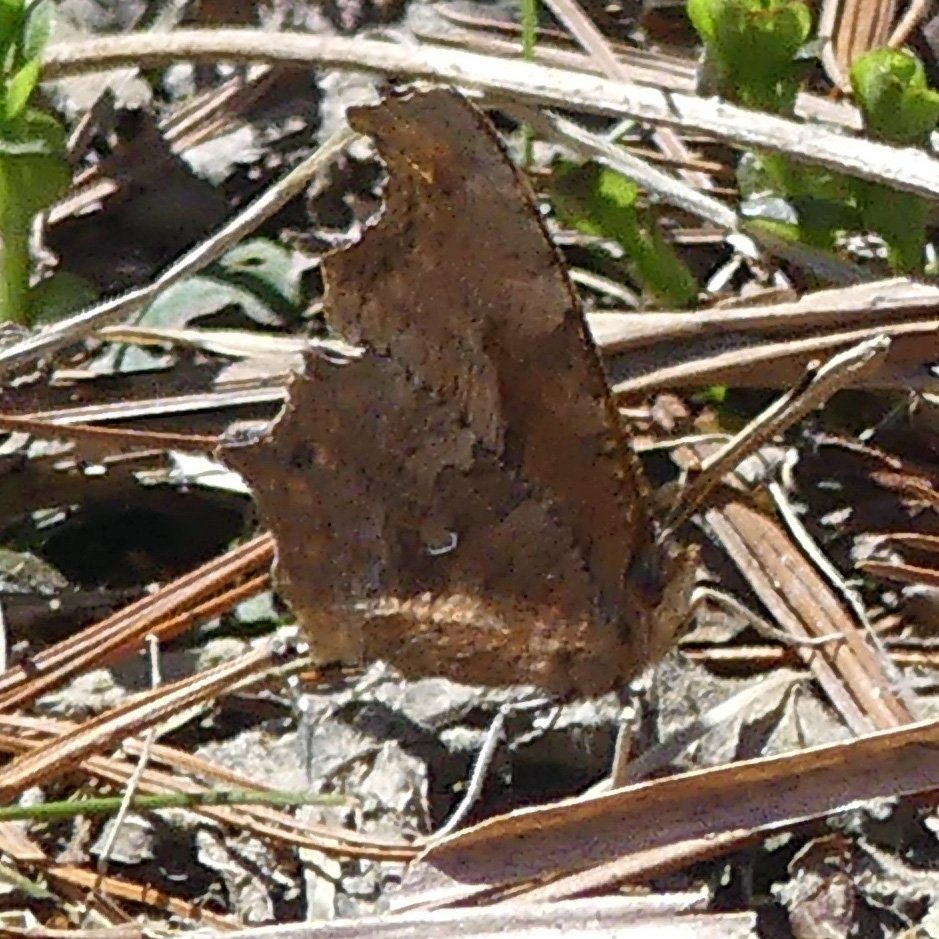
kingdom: Animalia
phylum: Arthropoda
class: Insecta
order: Lepidoptera
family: Nymphalidae
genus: Polygonia
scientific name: Polygonia comma
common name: Eastern Comma
